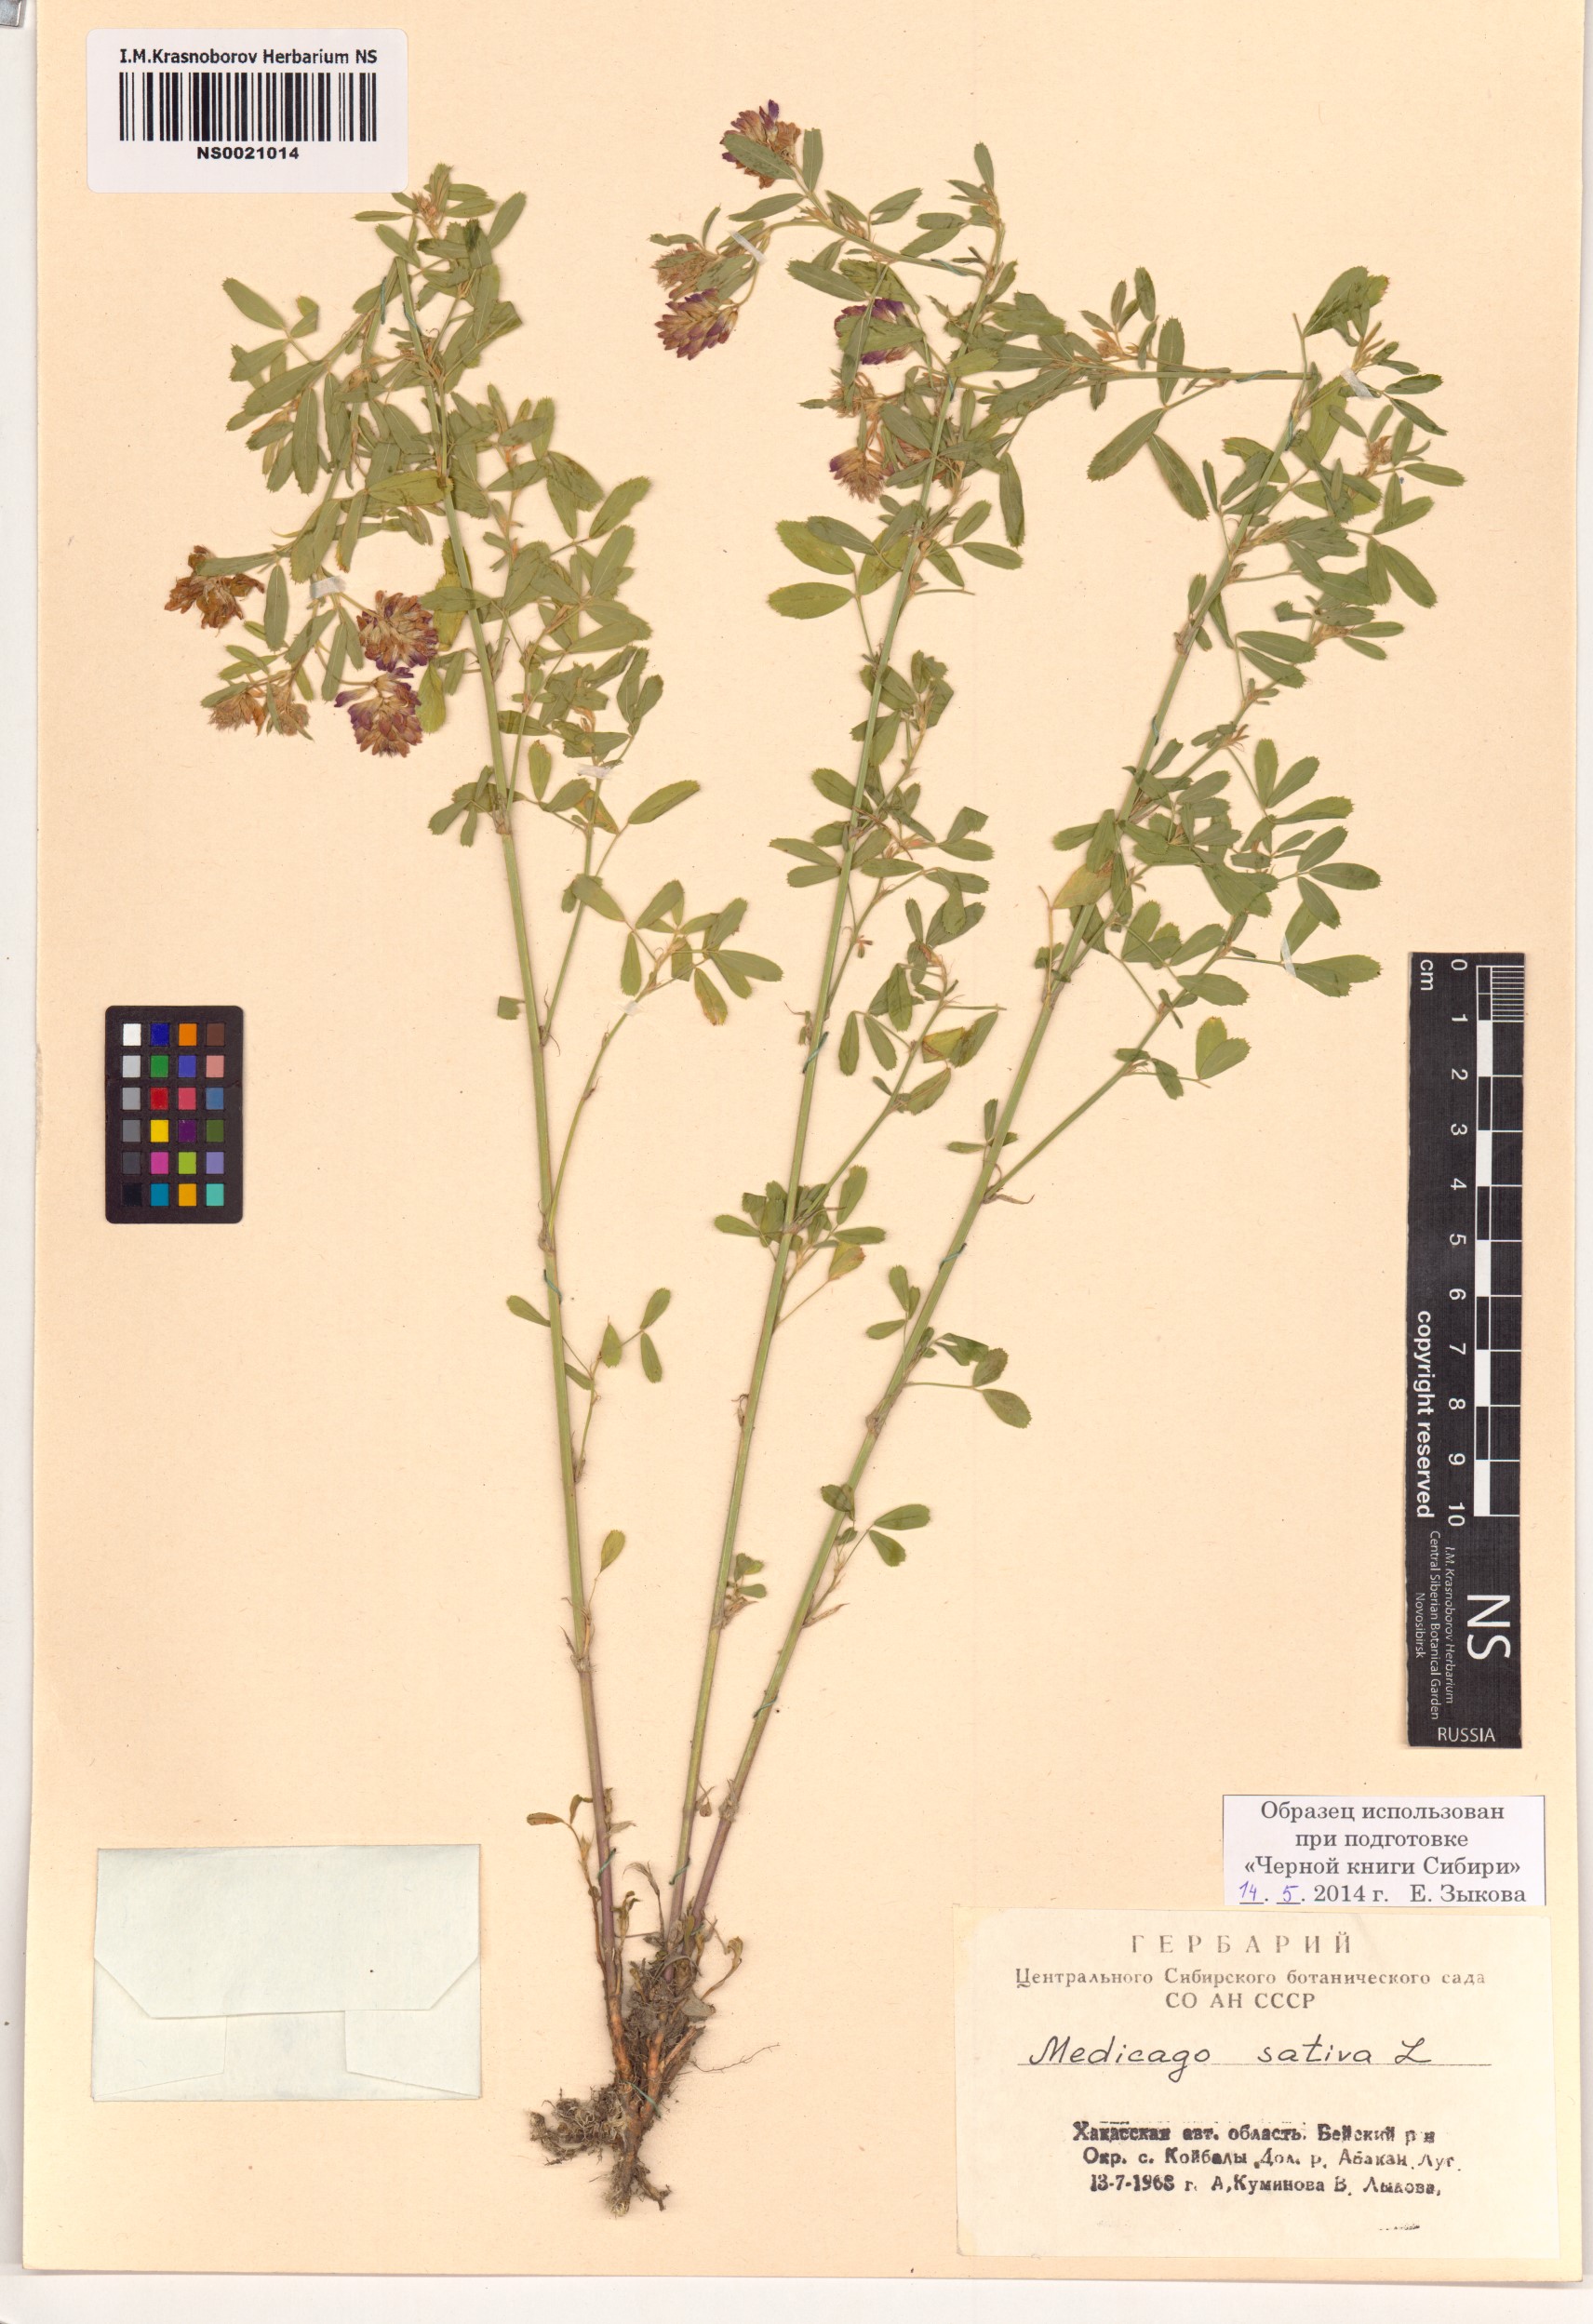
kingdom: Plantae
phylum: Tracheophyta
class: Magnoliopsida
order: Fabales
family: Fabaceae
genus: Medicago
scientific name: Medicago sativa
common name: Alfalfa
